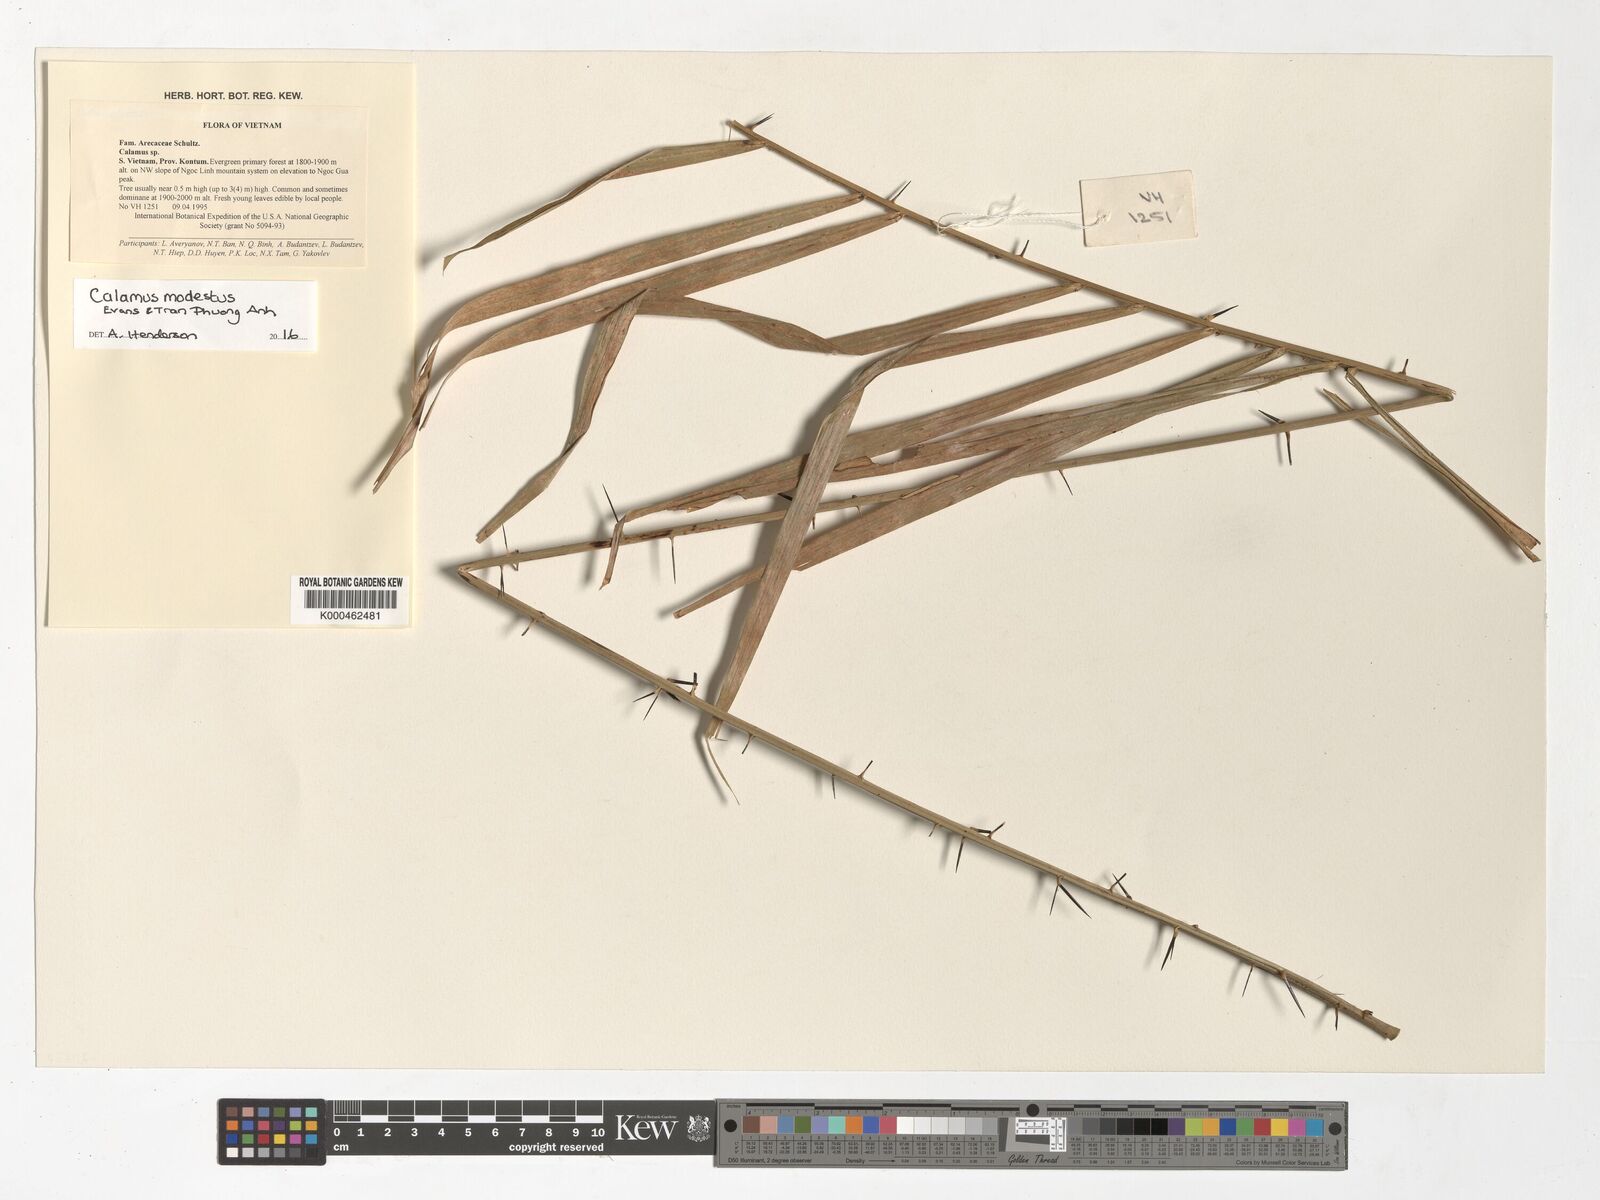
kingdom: Plantae
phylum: Tracheophyta
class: Liliopsida
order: Arecales
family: Arecaceae
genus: Calamus
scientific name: Calamus
